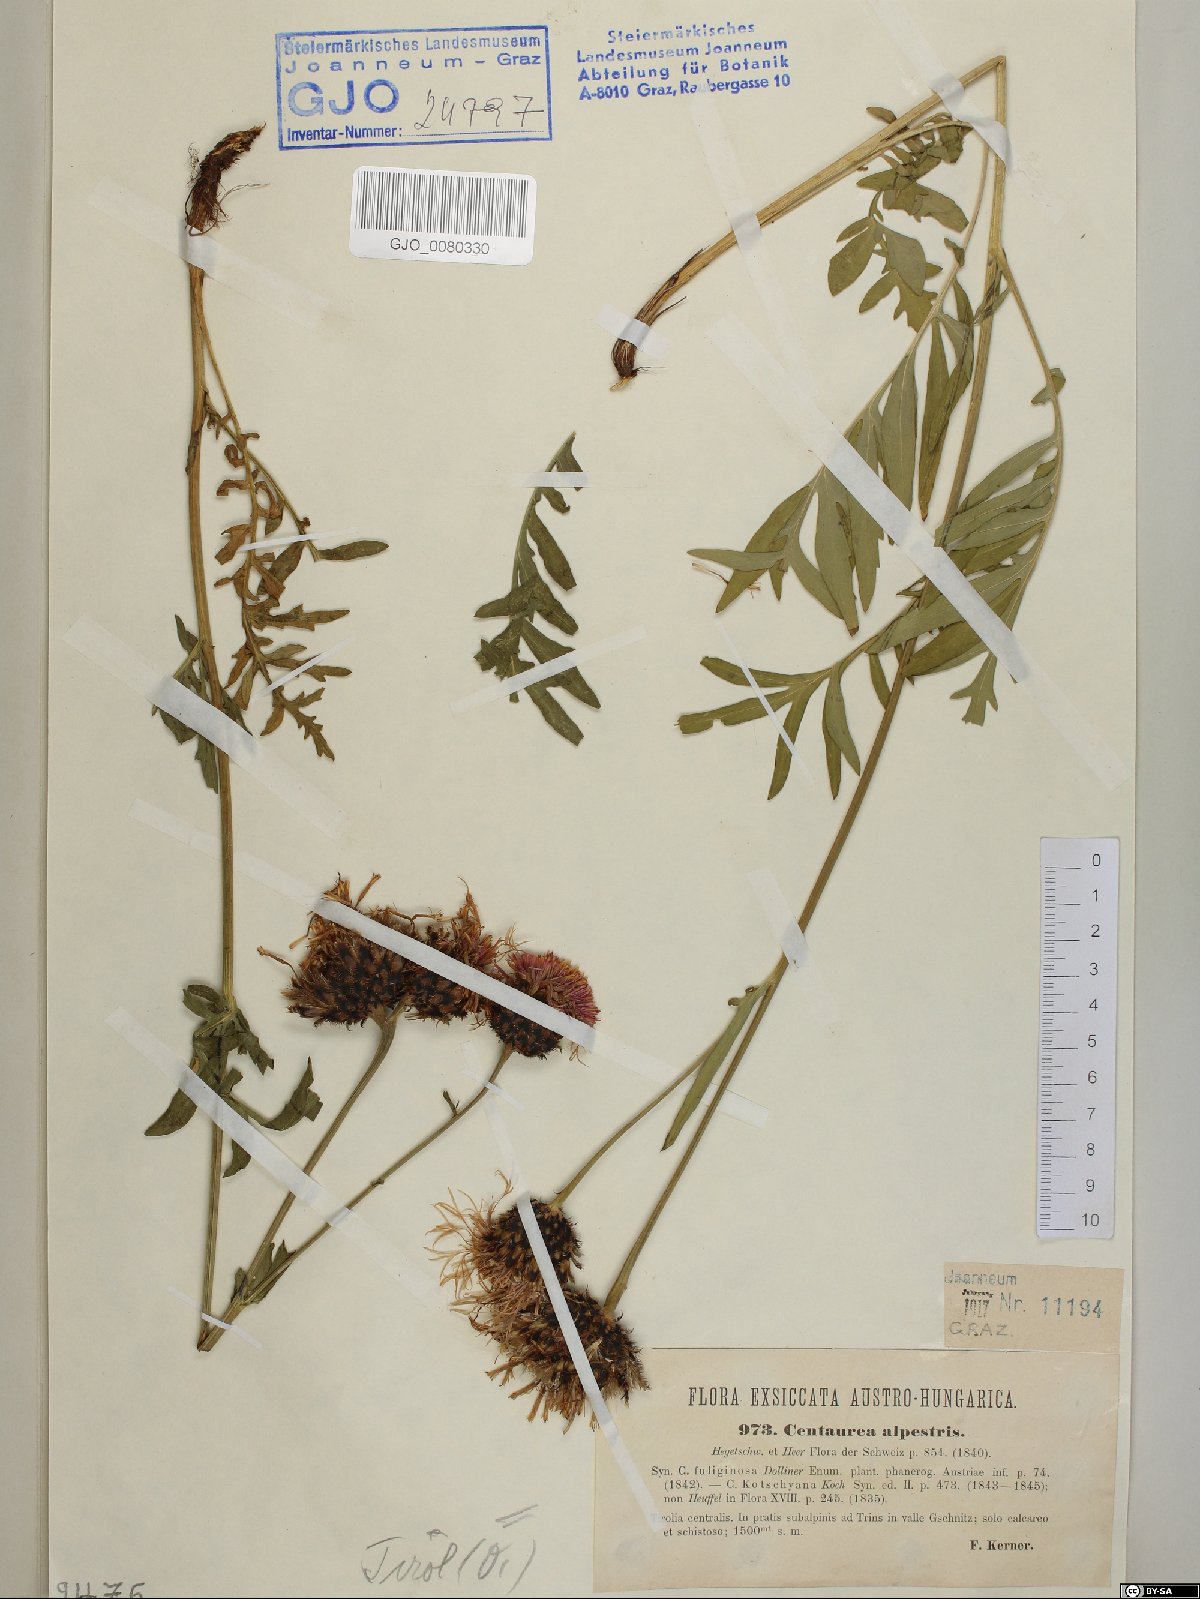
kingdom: Plantae
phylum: Tracheophyta
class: Magnoliopsida
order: Asterales
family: Asteraceae
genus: Centaurea
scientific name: Centaurea scabiosa
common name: Greater knapweed
